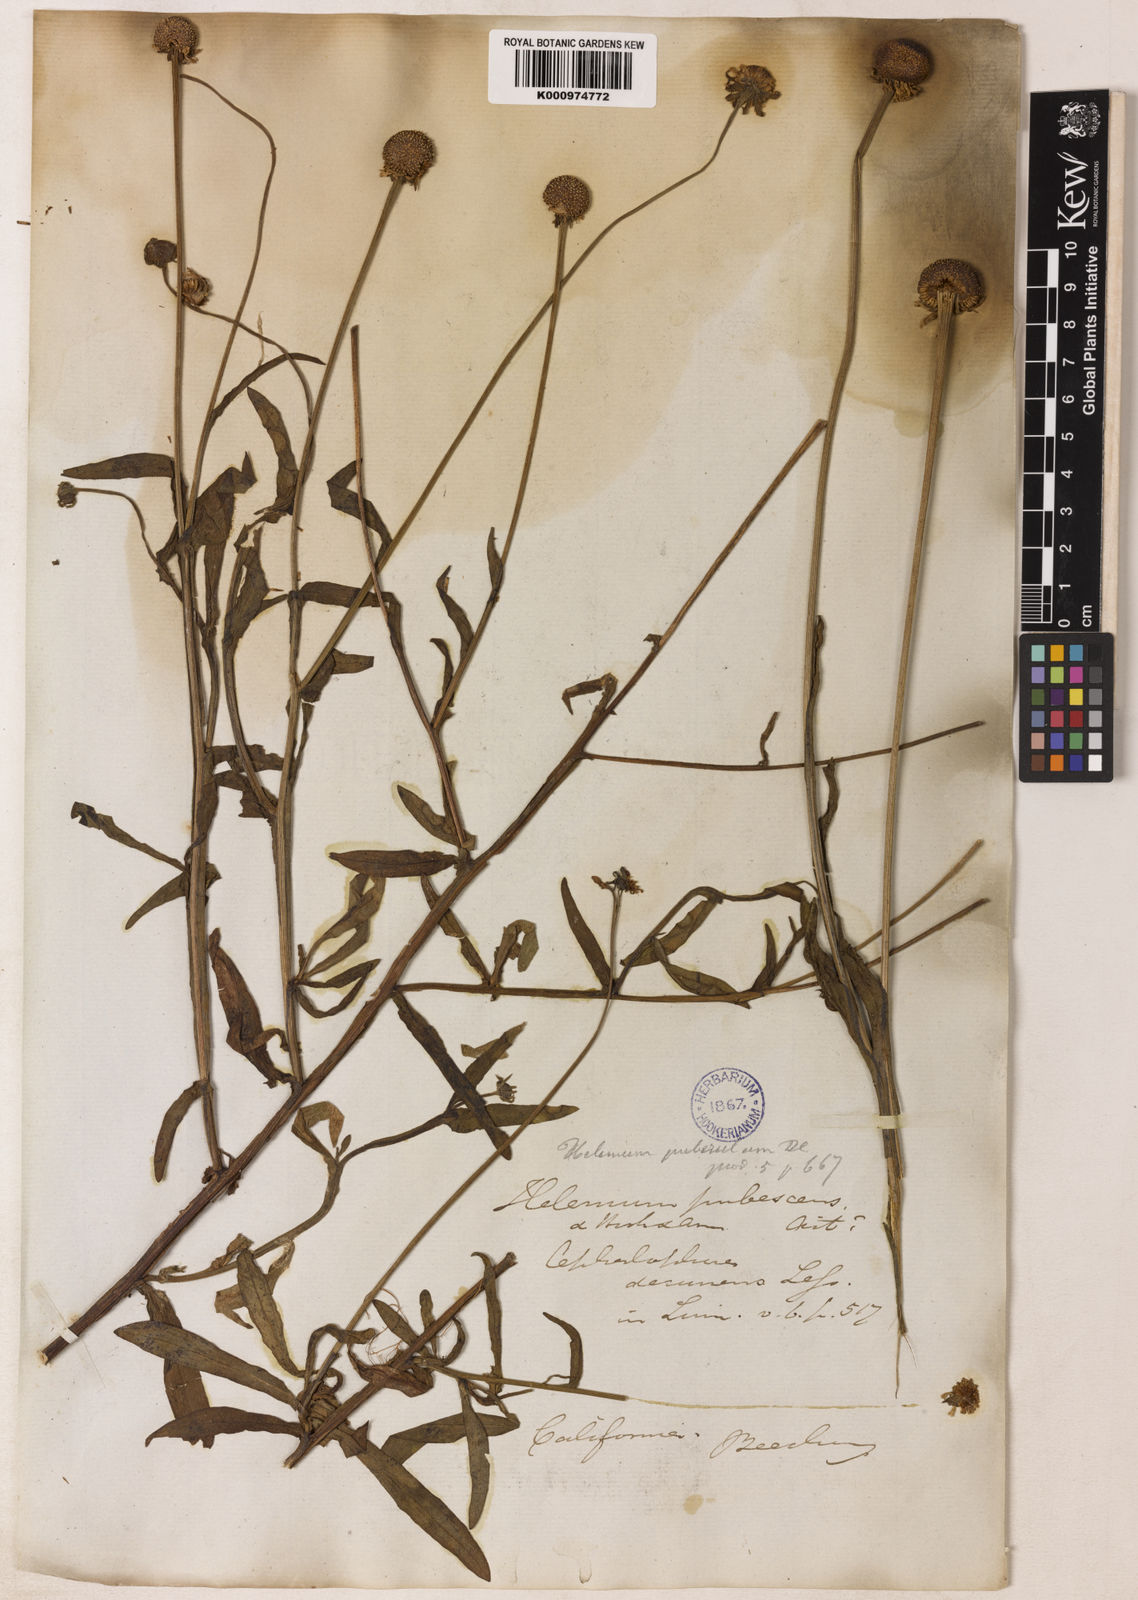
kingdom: Plantae
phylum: Tracheophyta
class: Magnoliopsida
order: Asterales
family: Asteraceae
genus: Helenium
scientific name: Helenium puberulum
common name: Sneezewort
